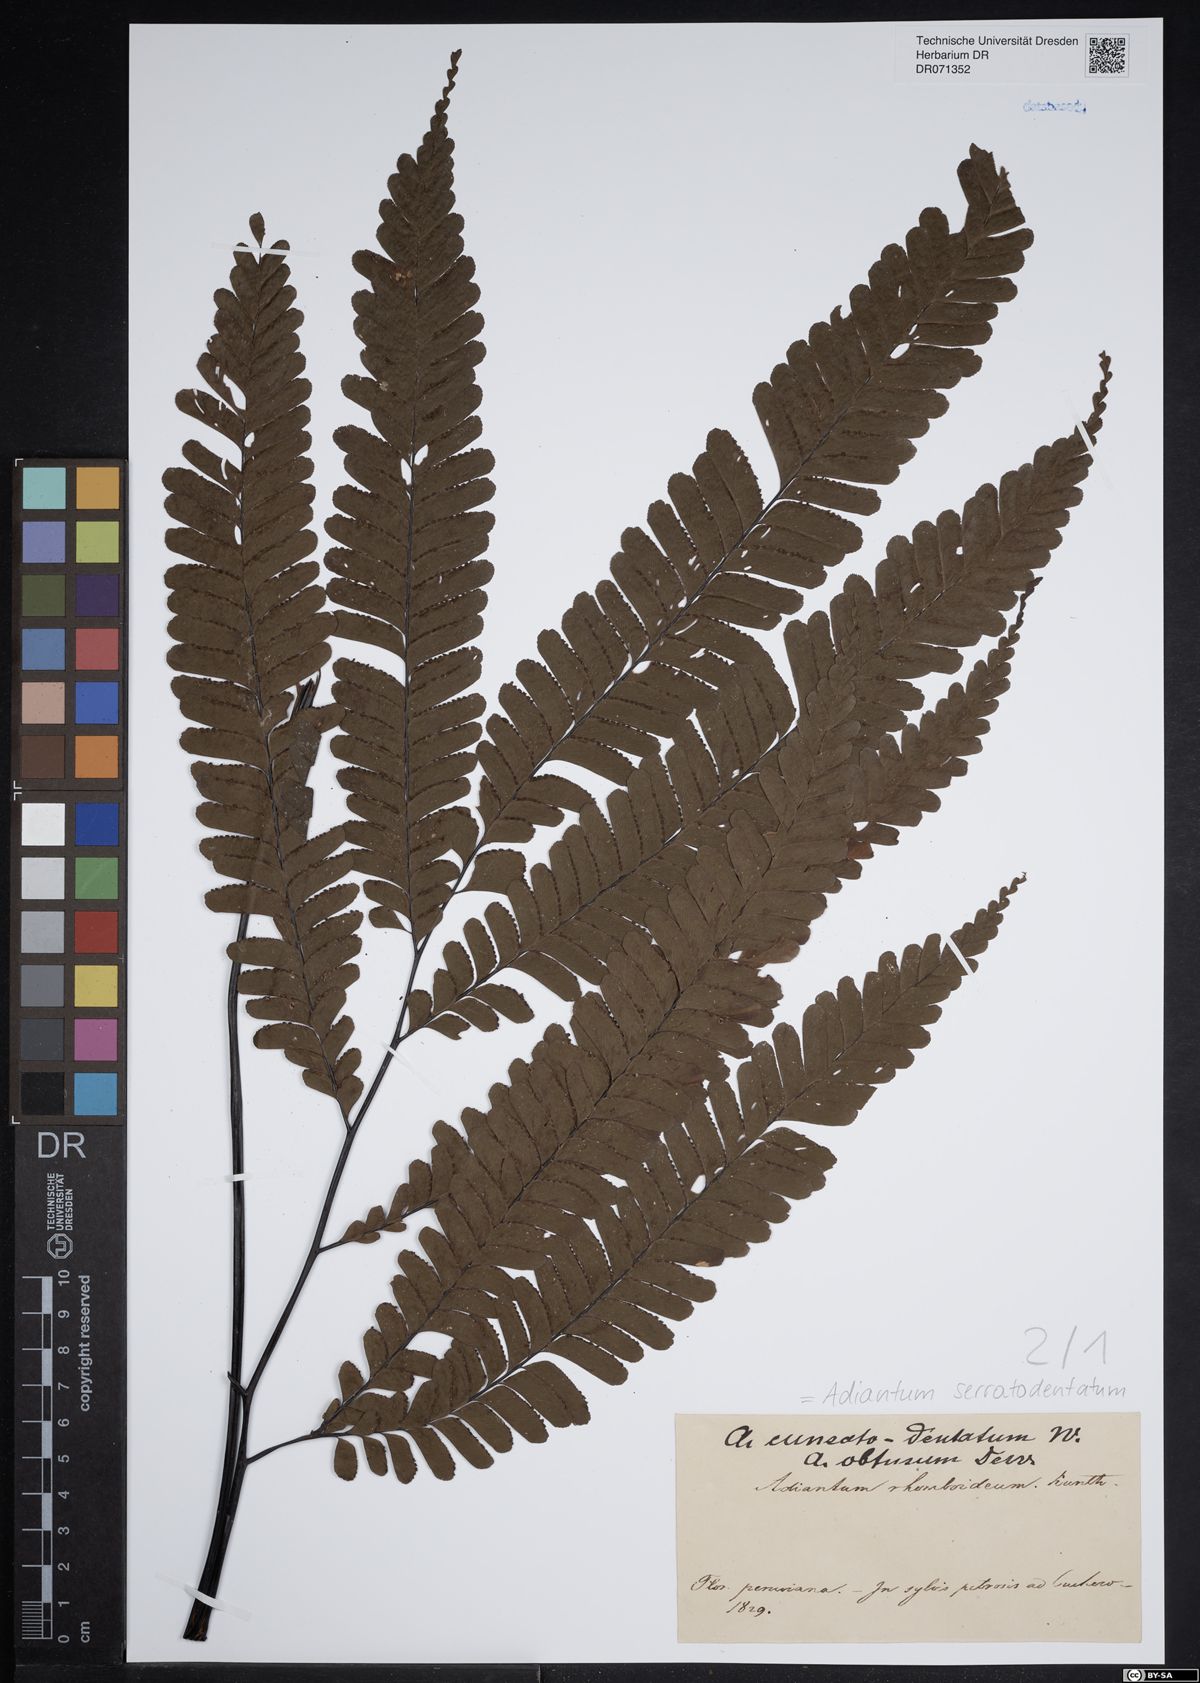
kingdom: Plantae
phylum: Tracheophyta
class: Polypodiopsida
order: Polypodiales
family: Pteridaceae
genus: Adiantum
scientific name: Adiantum serratodentatum
